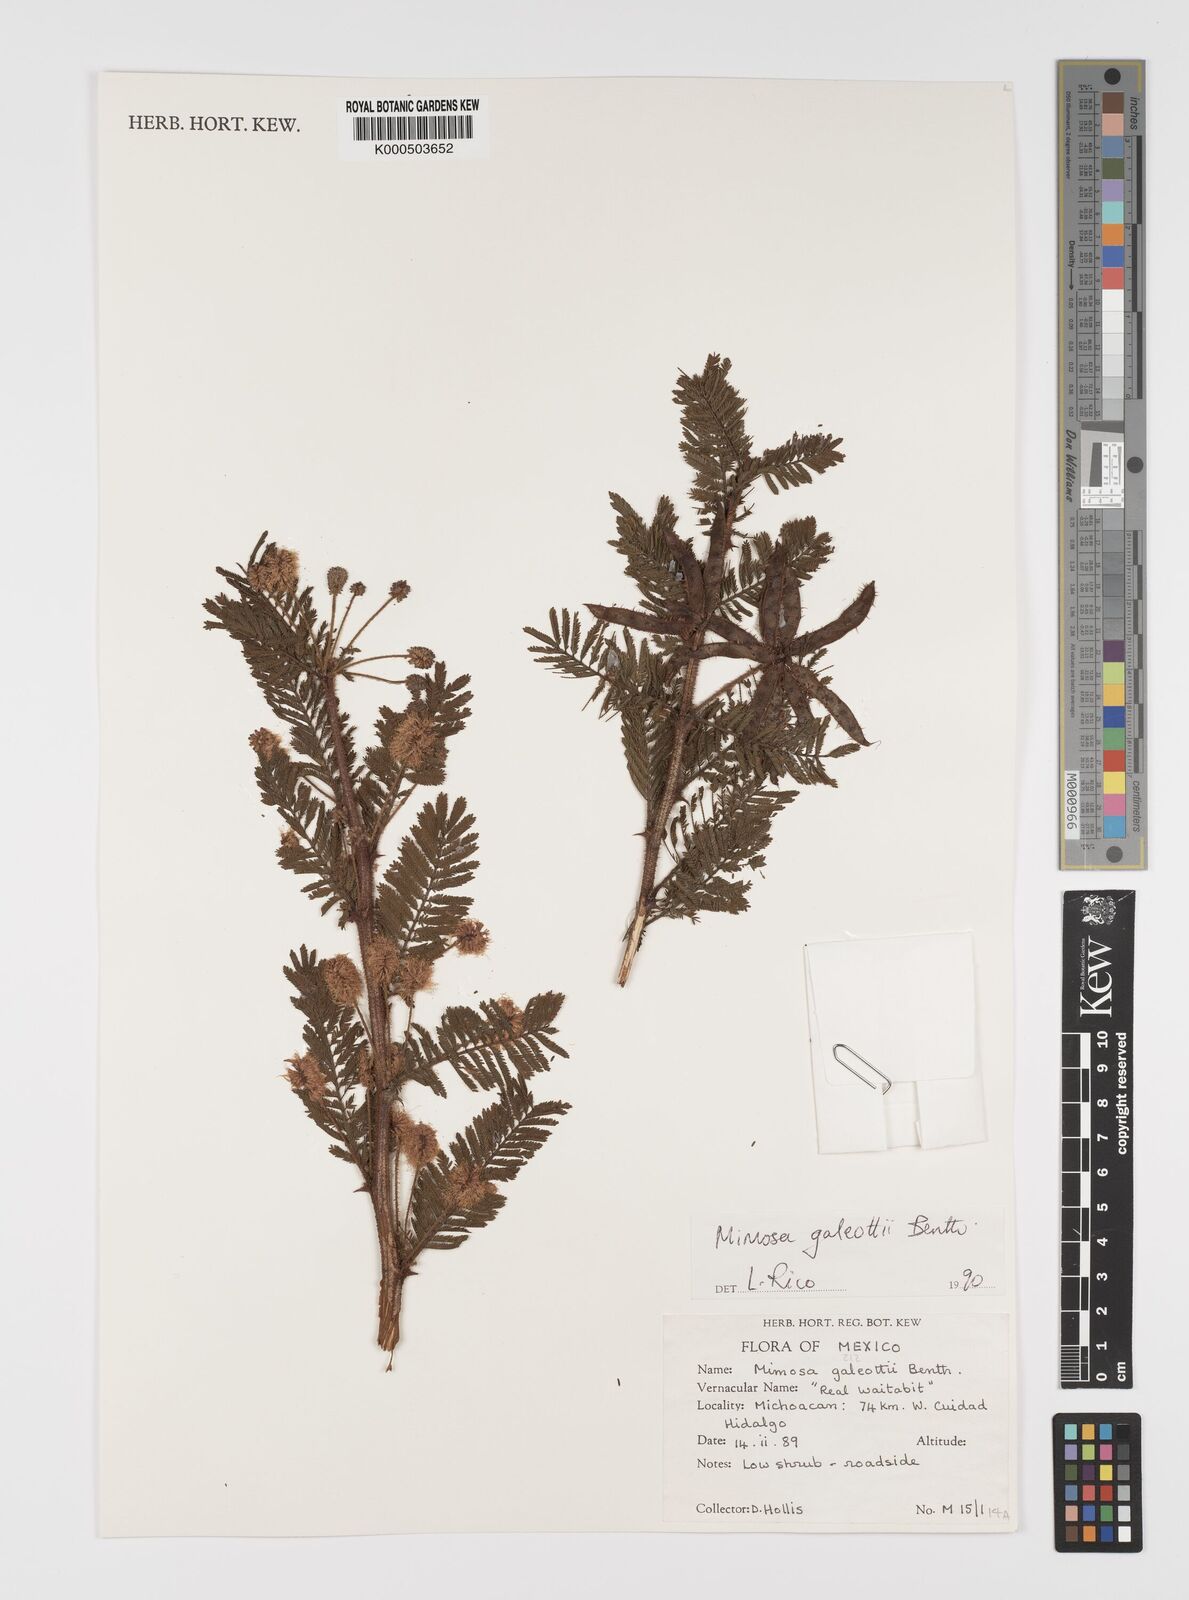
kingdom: Plantae
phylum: Tracheophyta
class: Magnoliopsida
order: Fabales
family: Fabaceae
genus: Mimosa
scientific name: Mimosa galeottii
